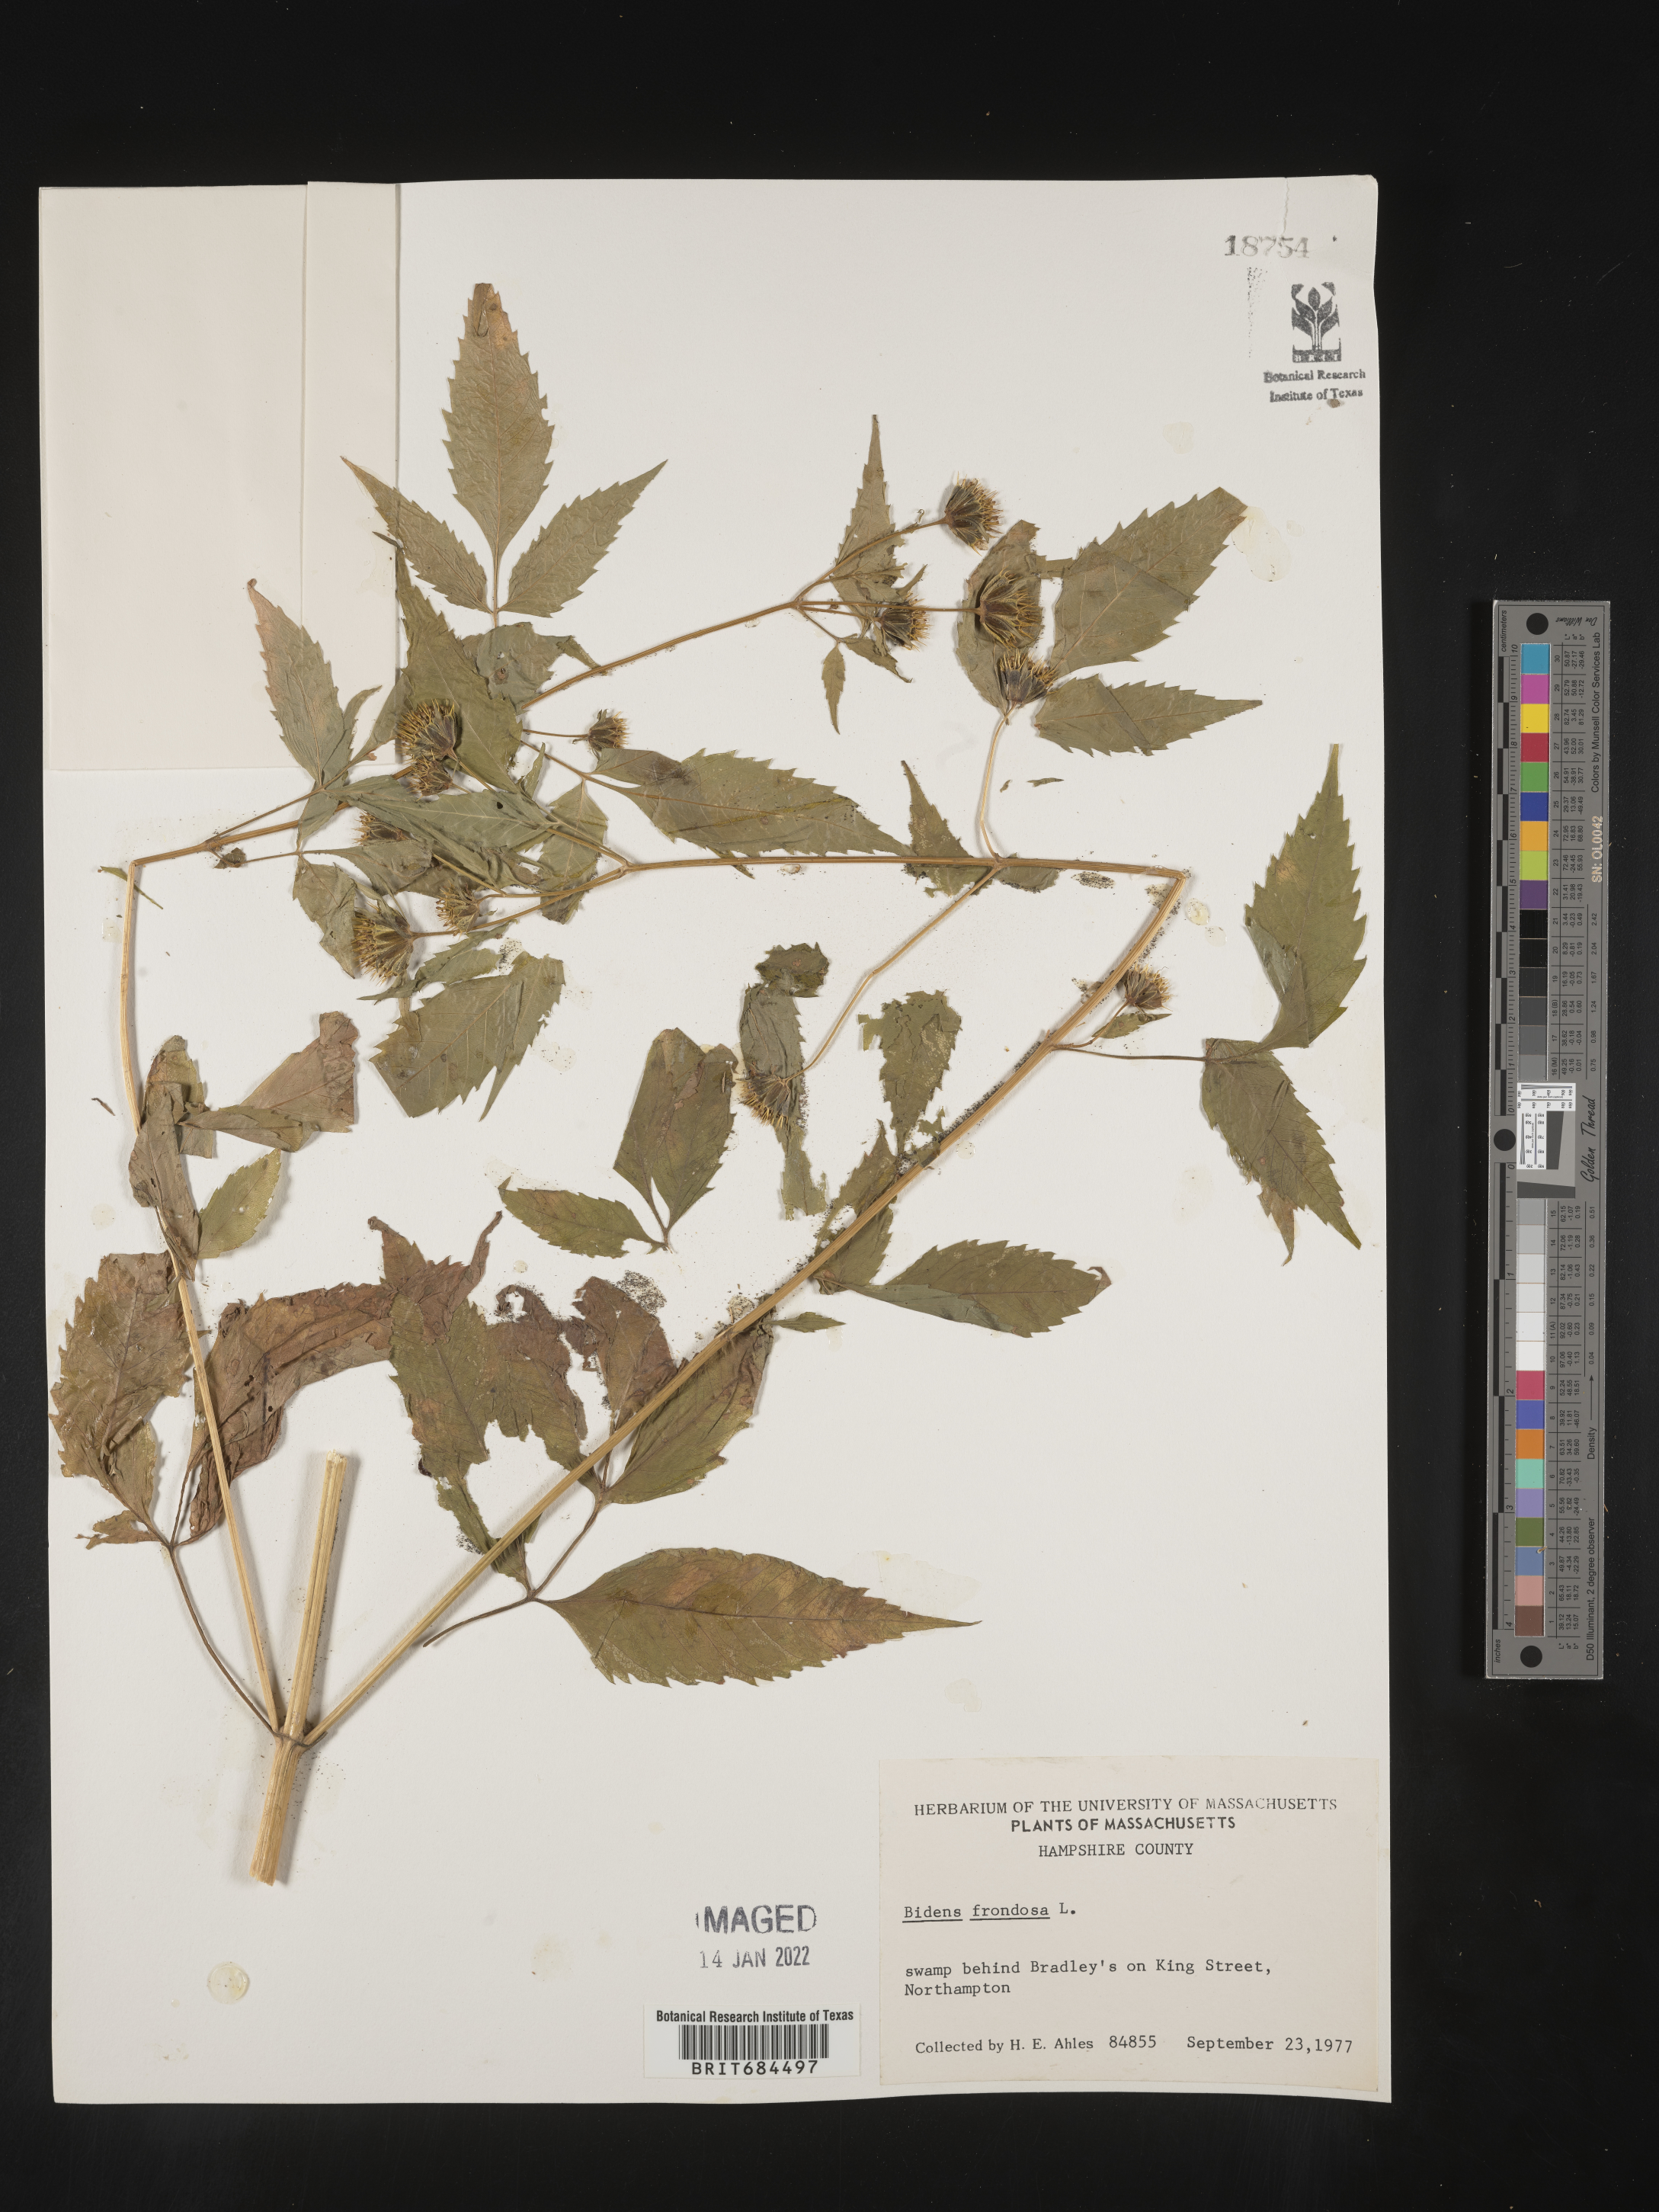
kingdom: Plantae
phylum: Tracheophyta
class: Magnoliopsida
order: Asterales
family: Asteraceae
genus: Bidens
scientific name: Bidens frondosa
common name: Beggarticks
